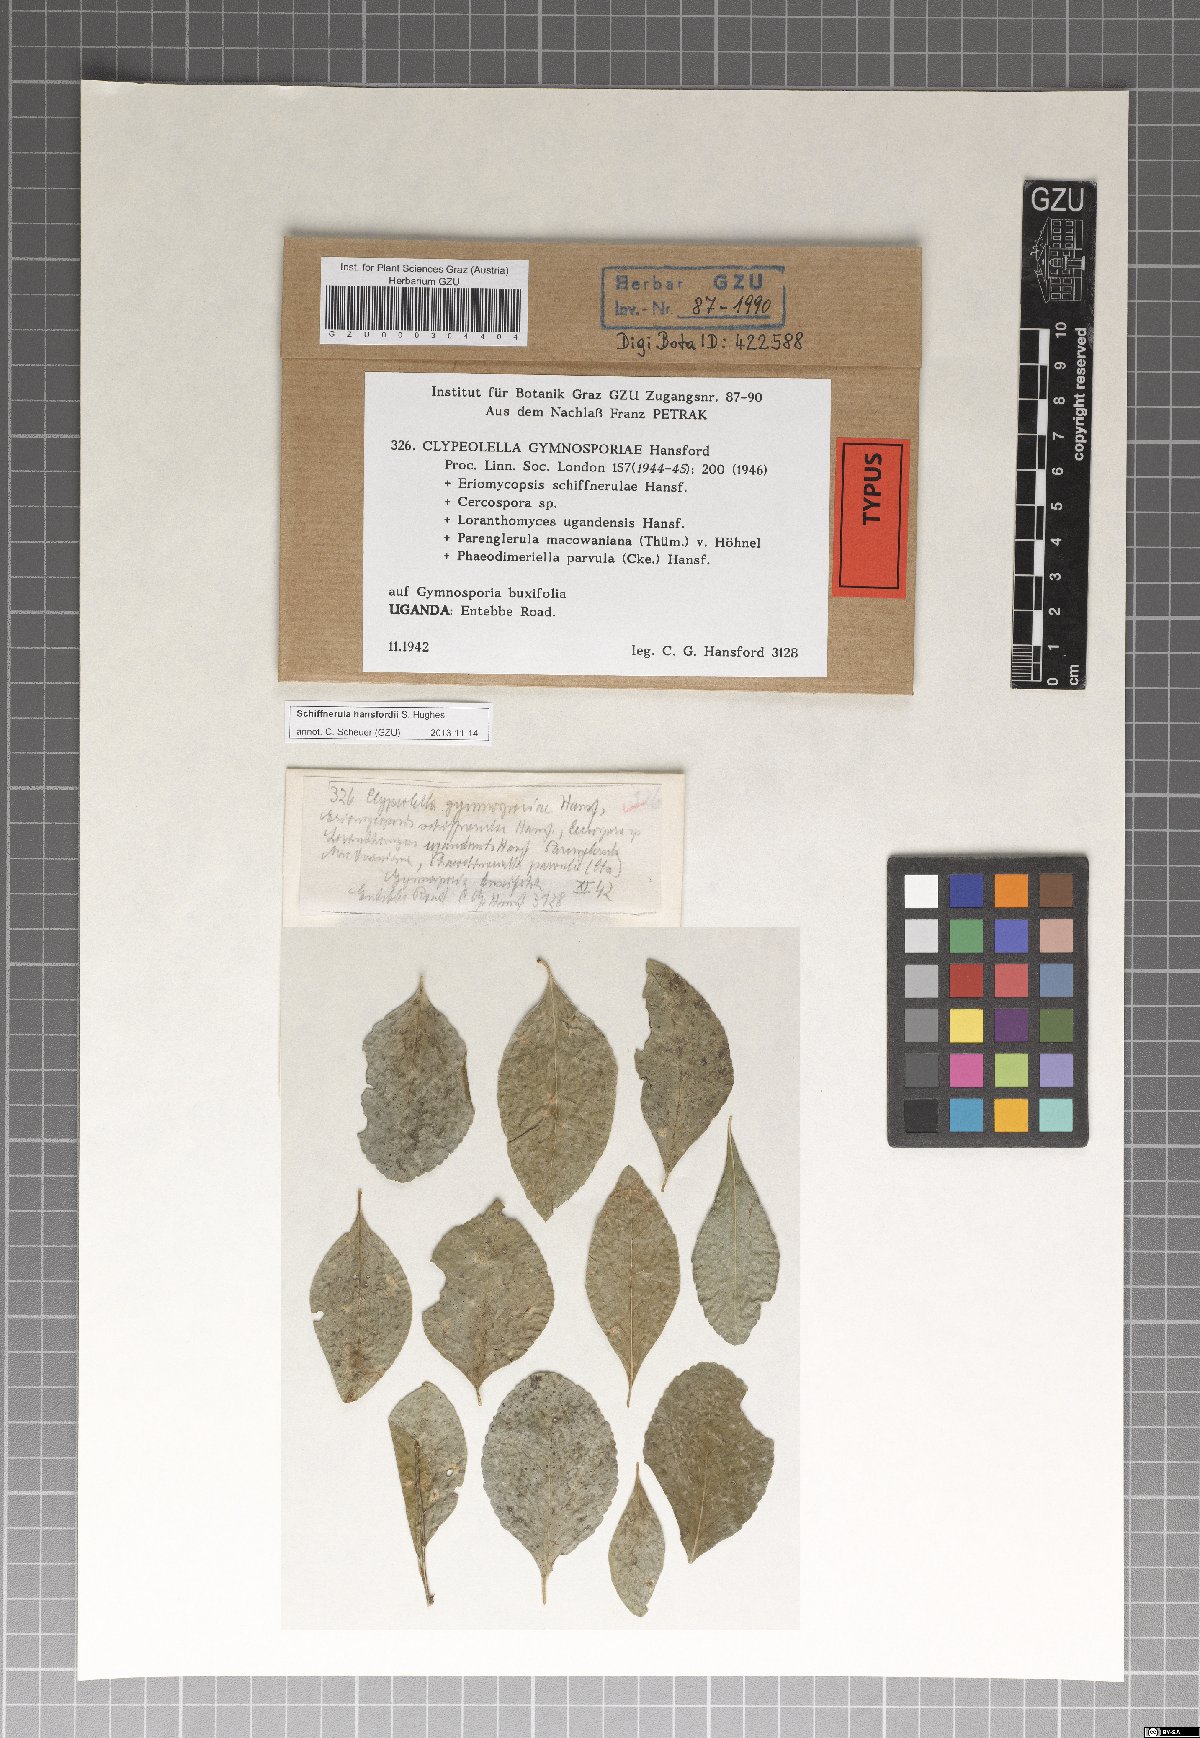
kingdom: Fungi
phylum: Ascomycota
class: Dothideomycetes
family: Englerulaceae
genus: Schiffnerula
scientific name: Schiffnerula hansfordii
